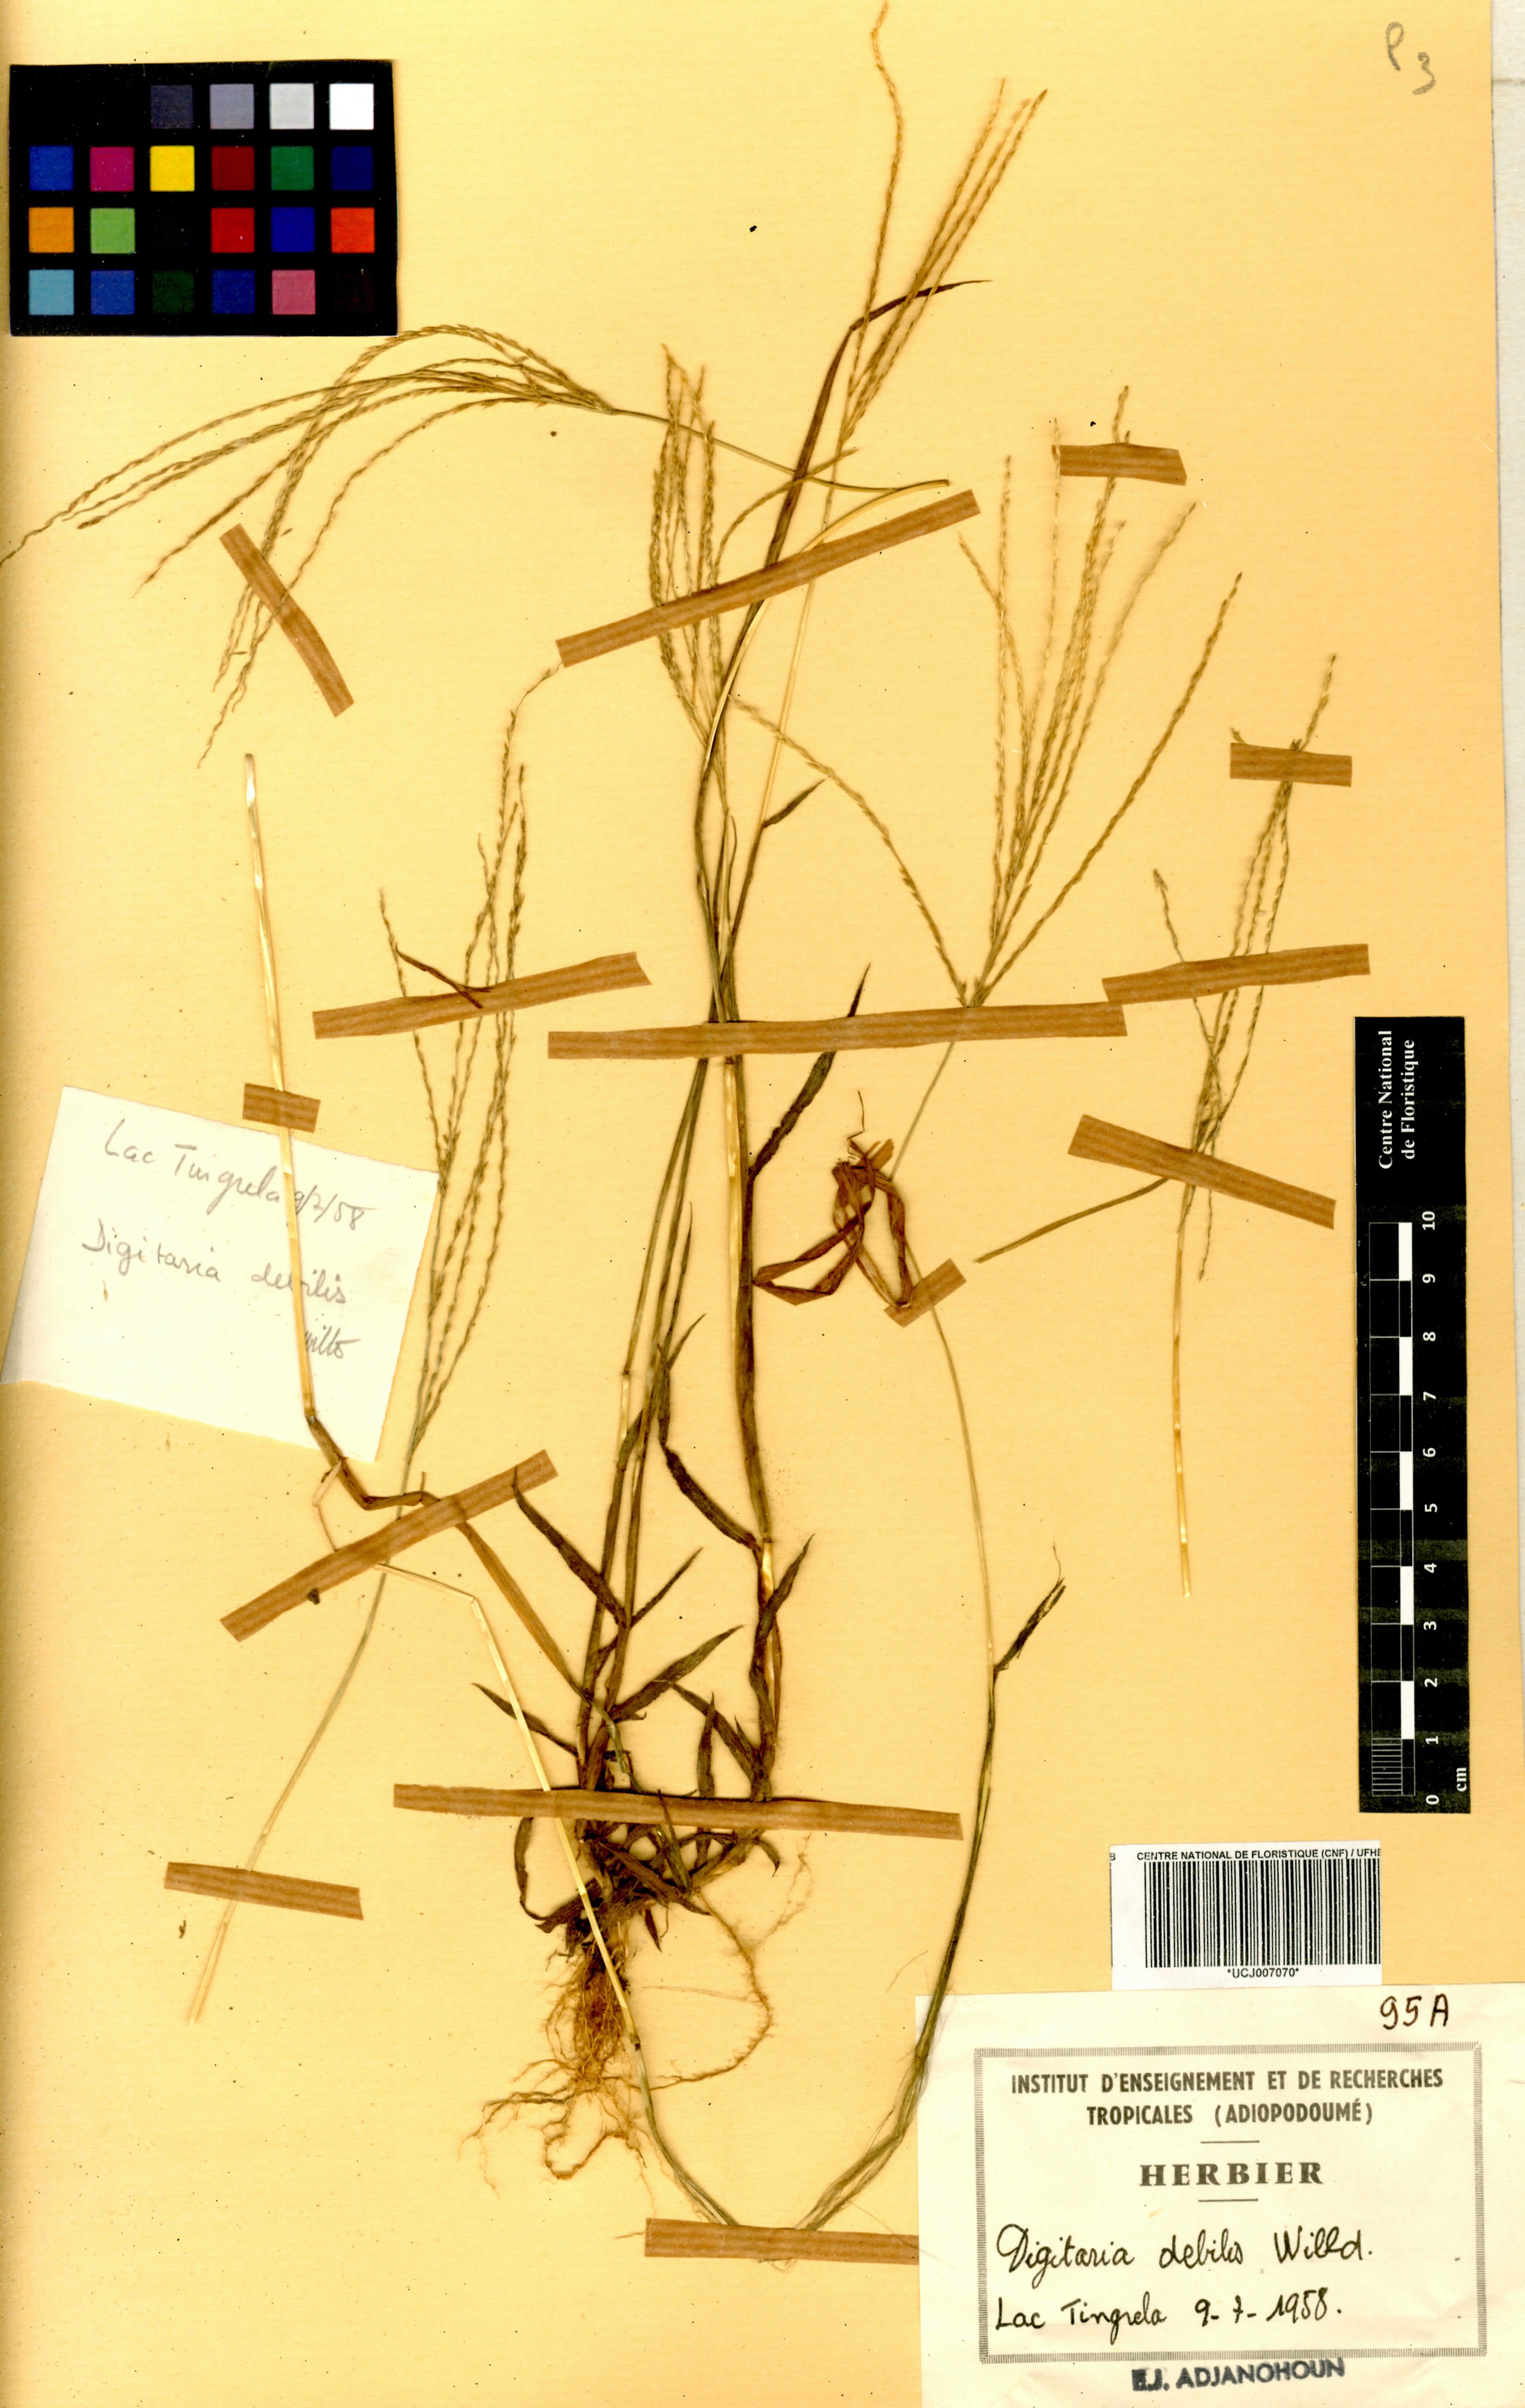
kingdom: Plantae
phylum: Tracheophyta
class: Liliopsida
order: Poales
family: Poaceae
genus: Digitaria
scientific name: Digitaria debilis
